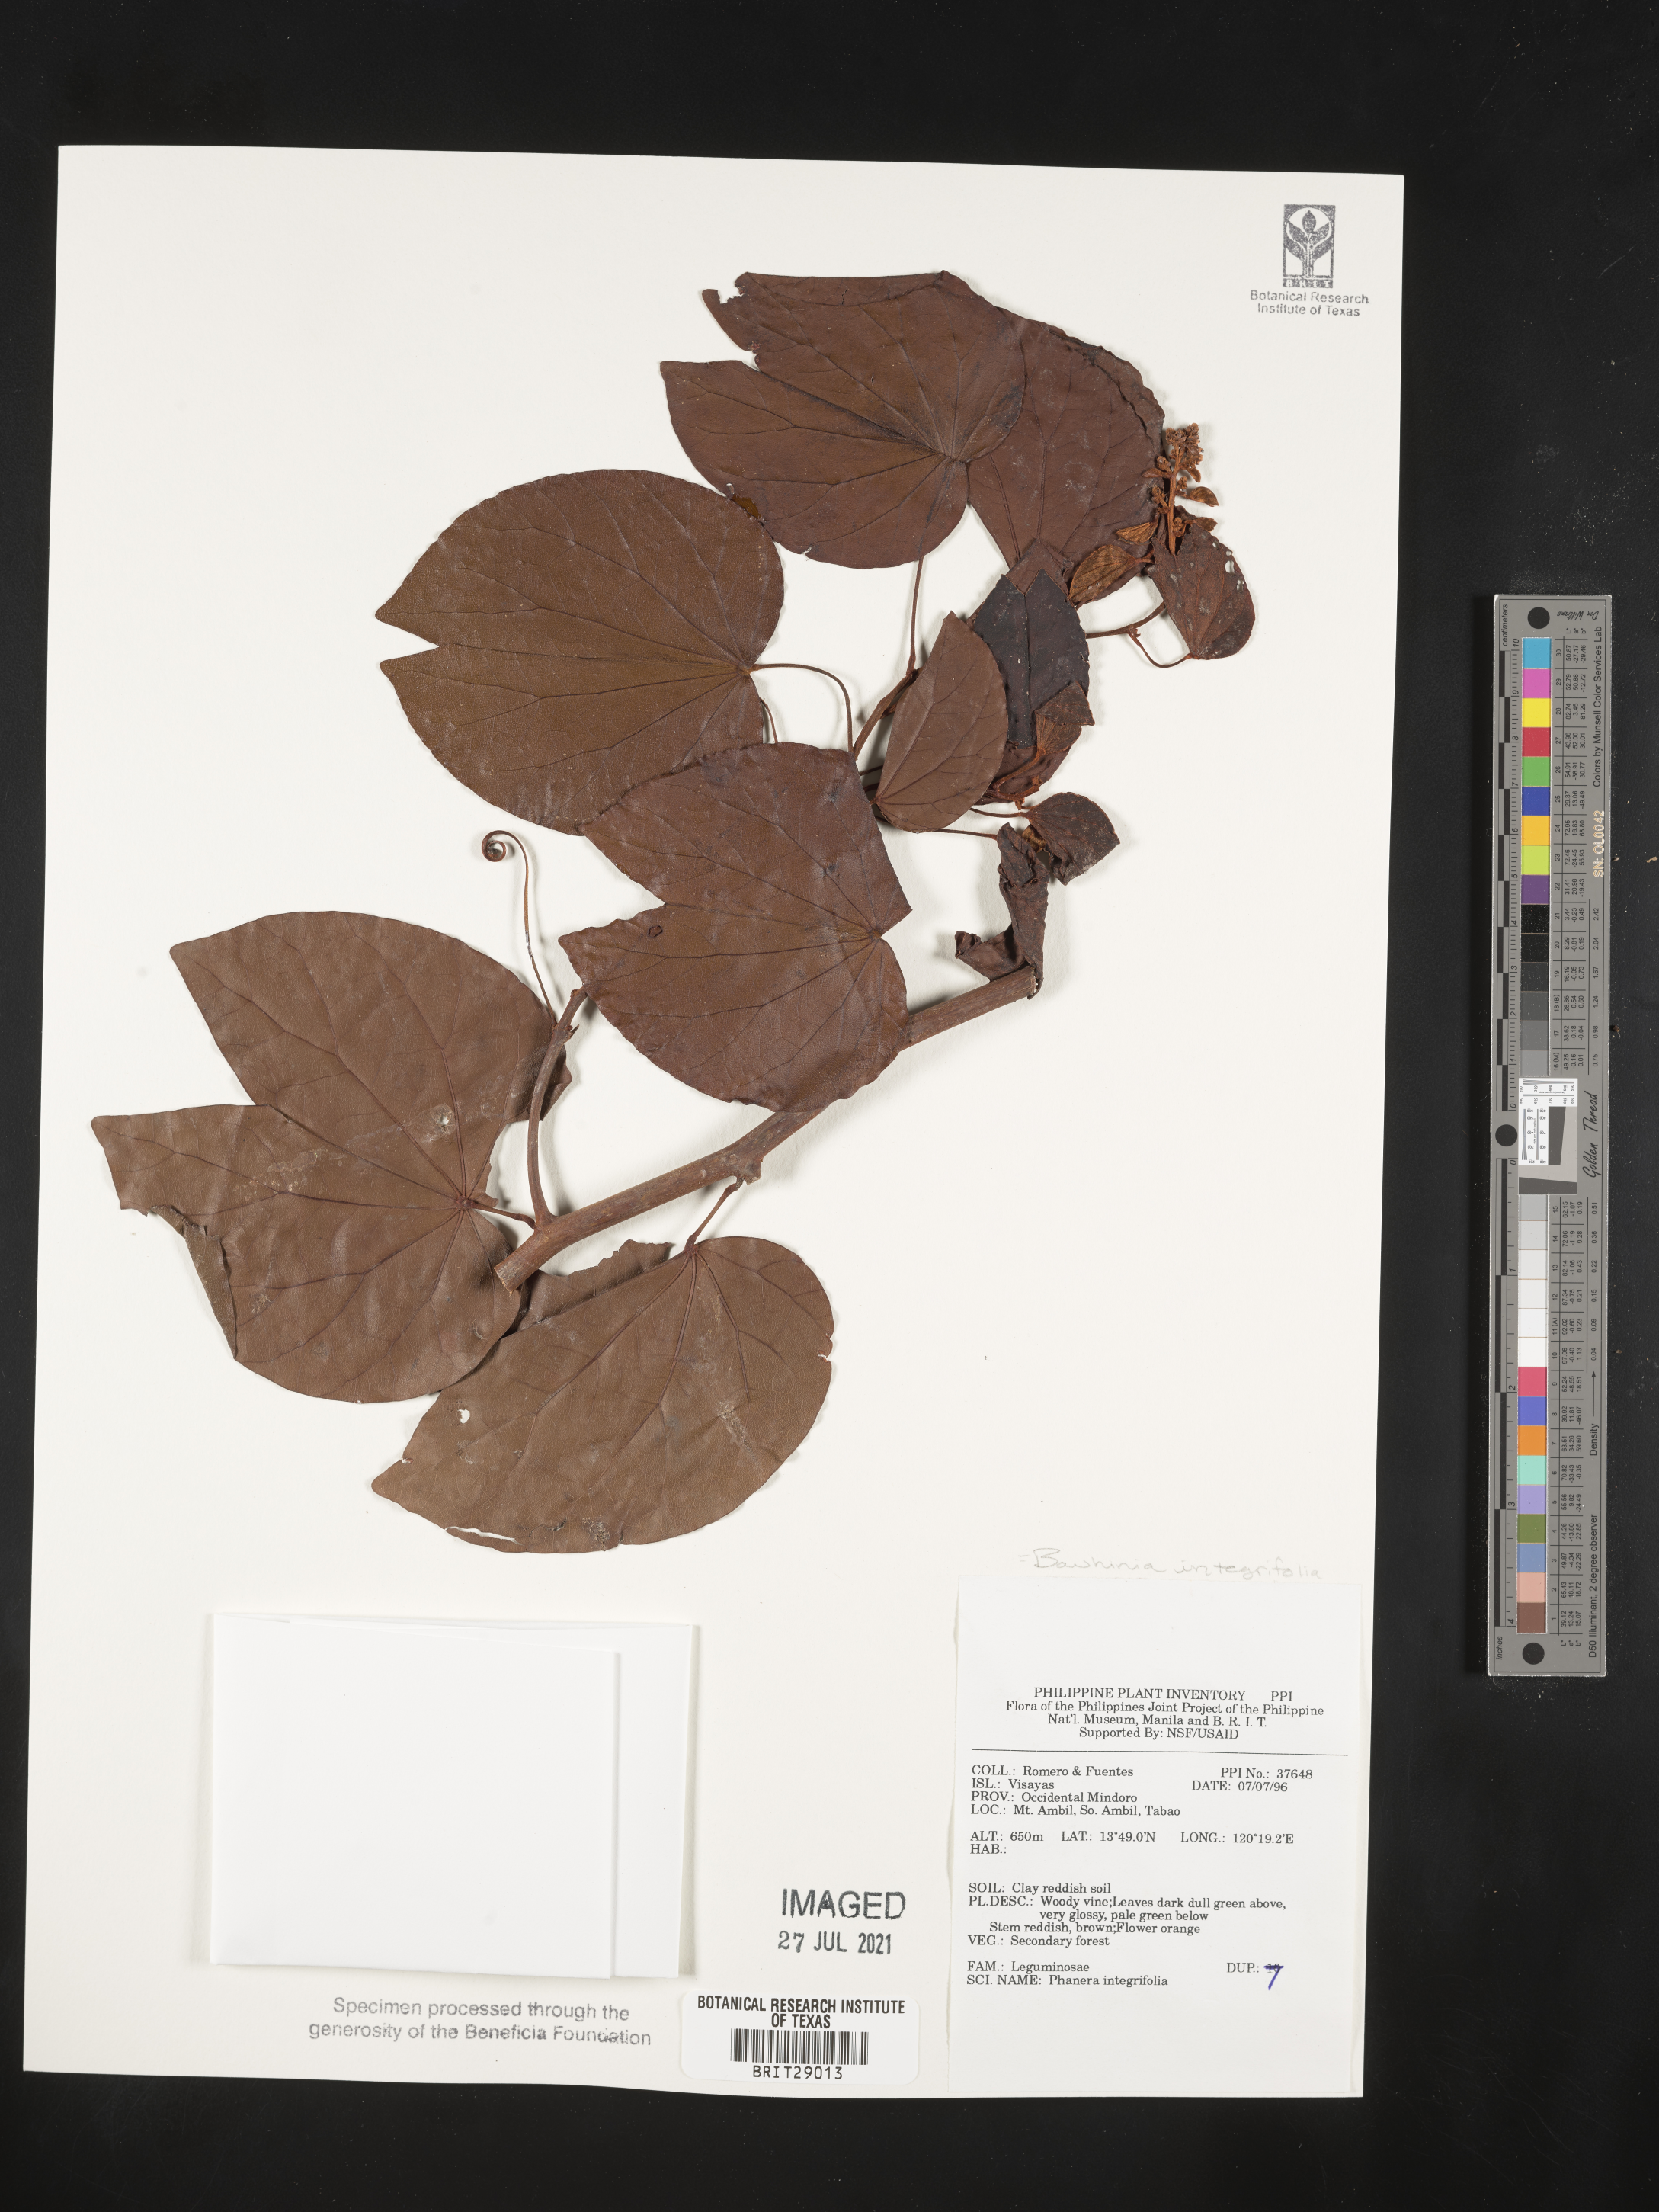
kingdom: Plantae
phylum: Tracheophyta
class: Magnoliopsida
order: Fabales
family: Fabaceae
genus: Phanera
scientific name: Phanera integrifolia
